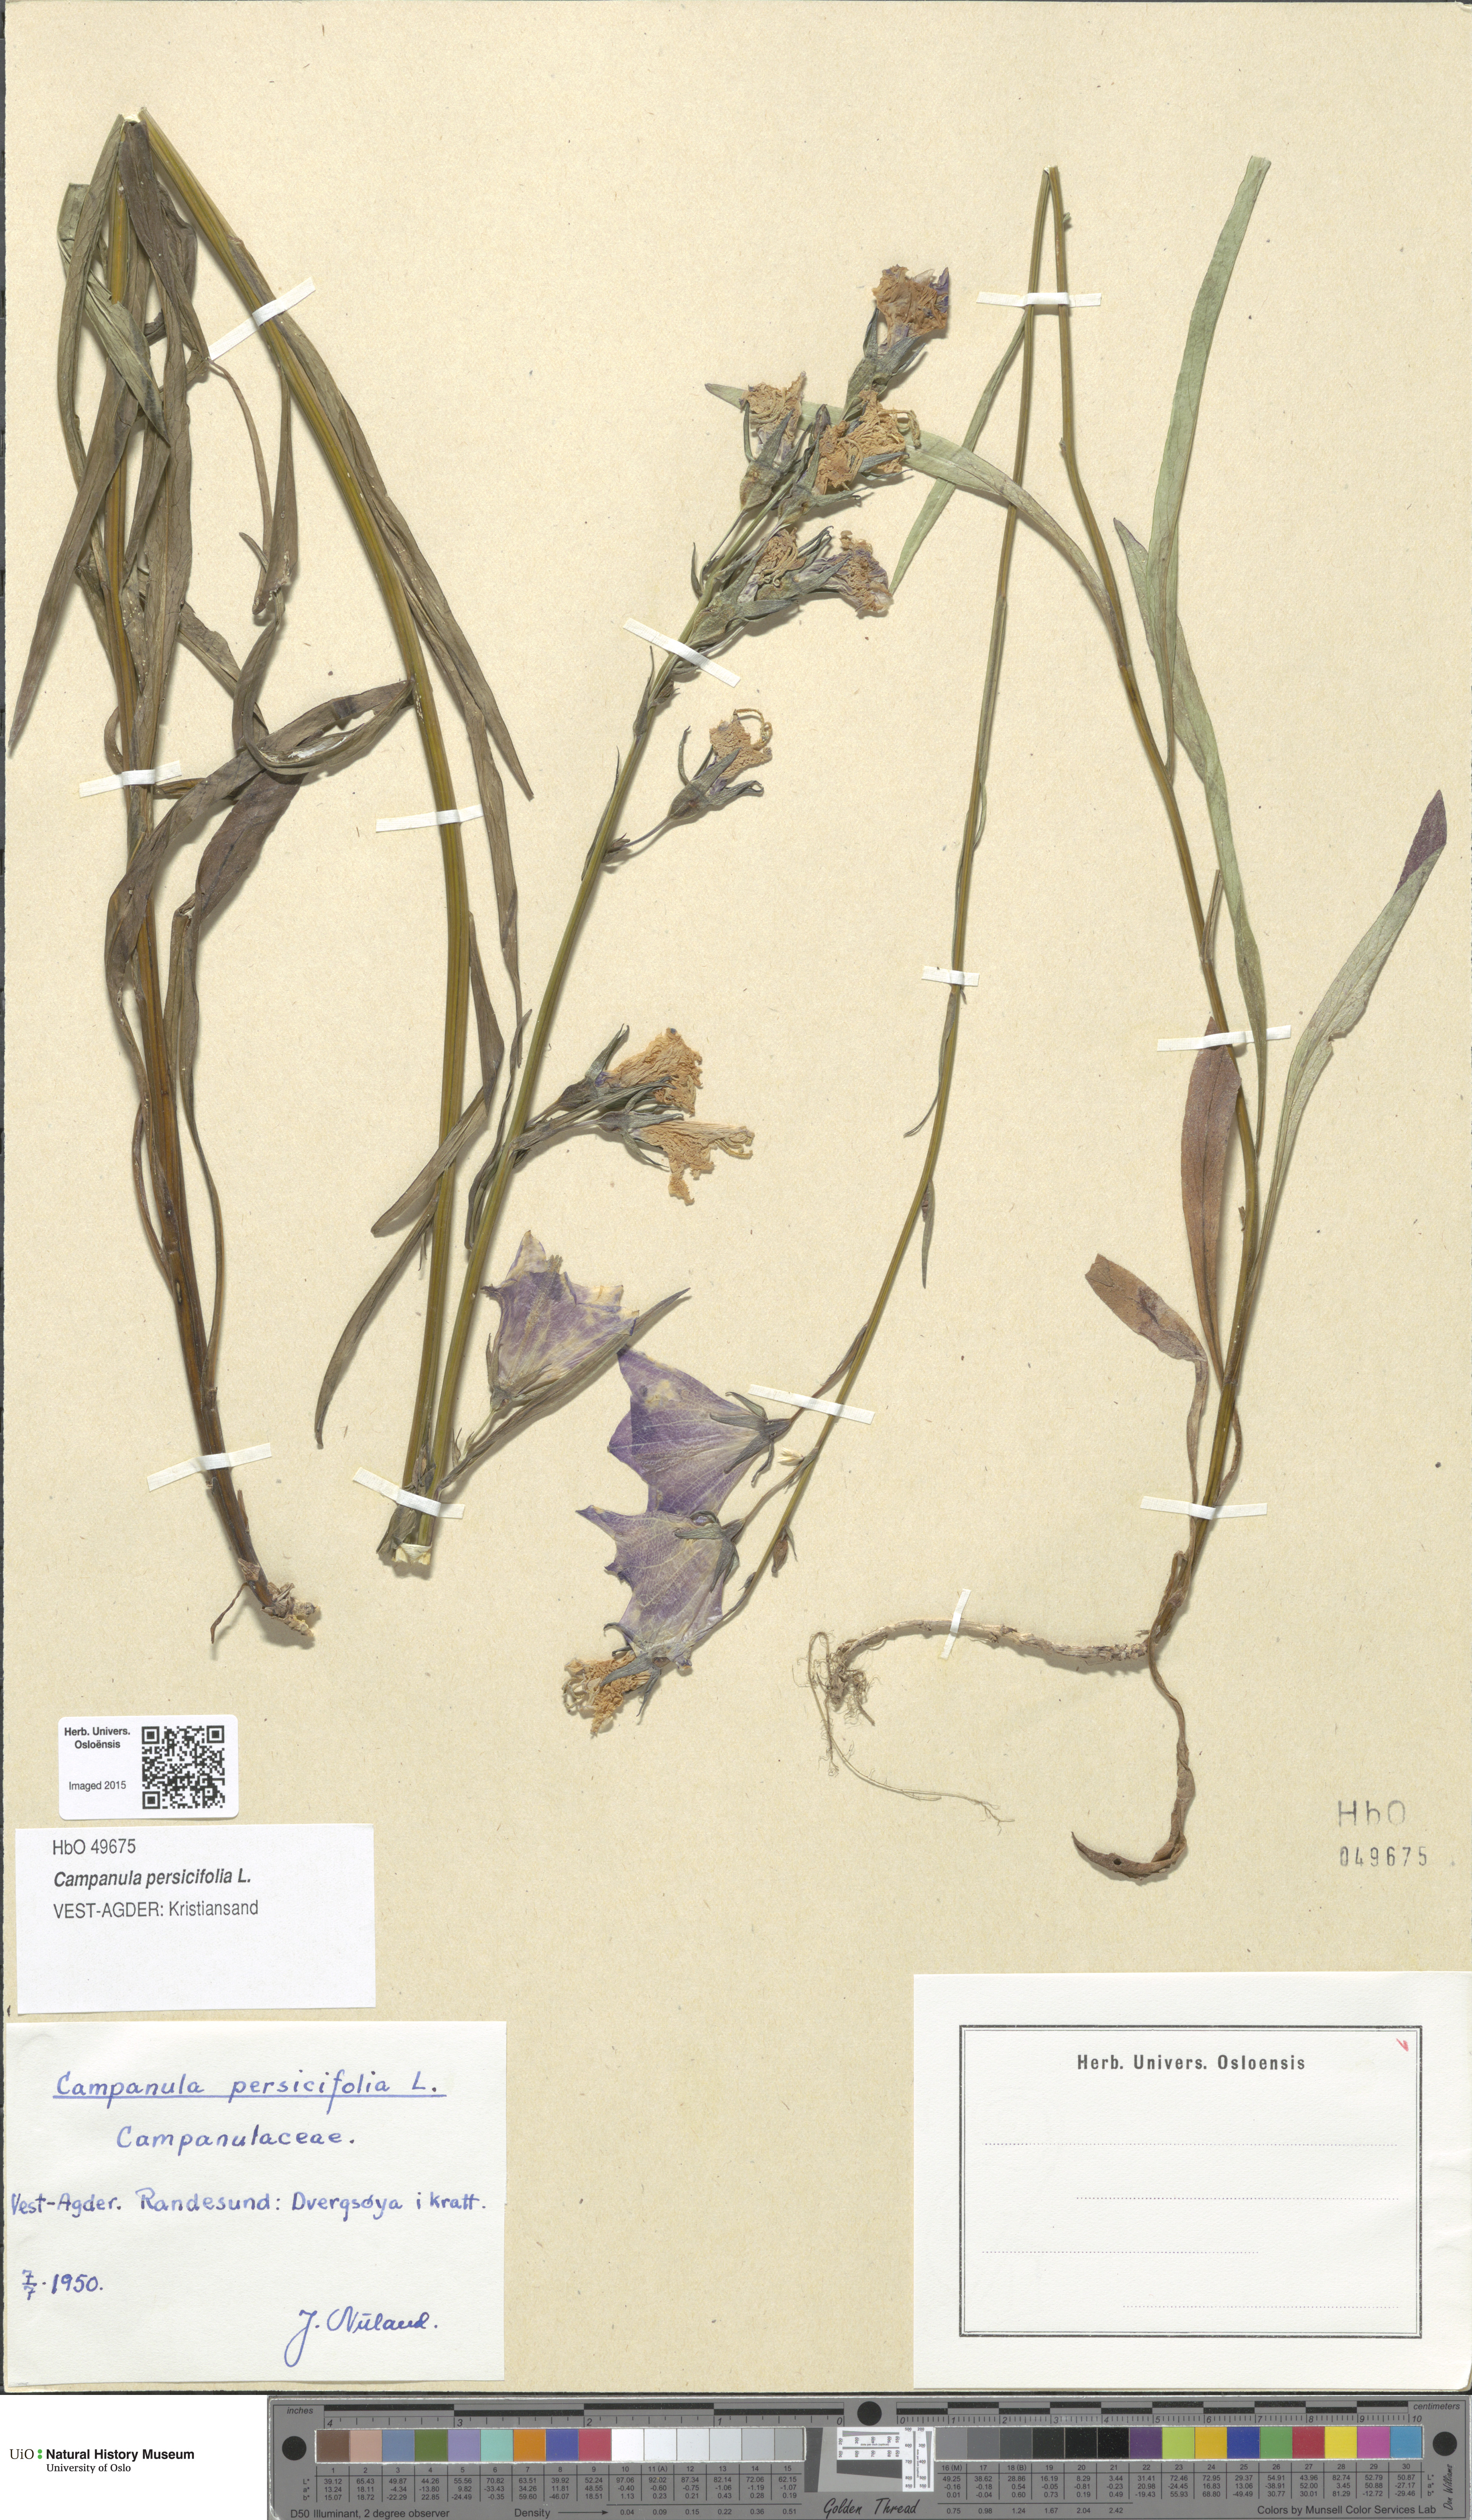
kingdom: Plantae
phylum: Tracheophyta
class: Magnoliopsida
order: Asterales
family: Campanulaceae
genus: Campanula
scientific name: Campanula persicifolia
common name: Peach-leaved bellflower
